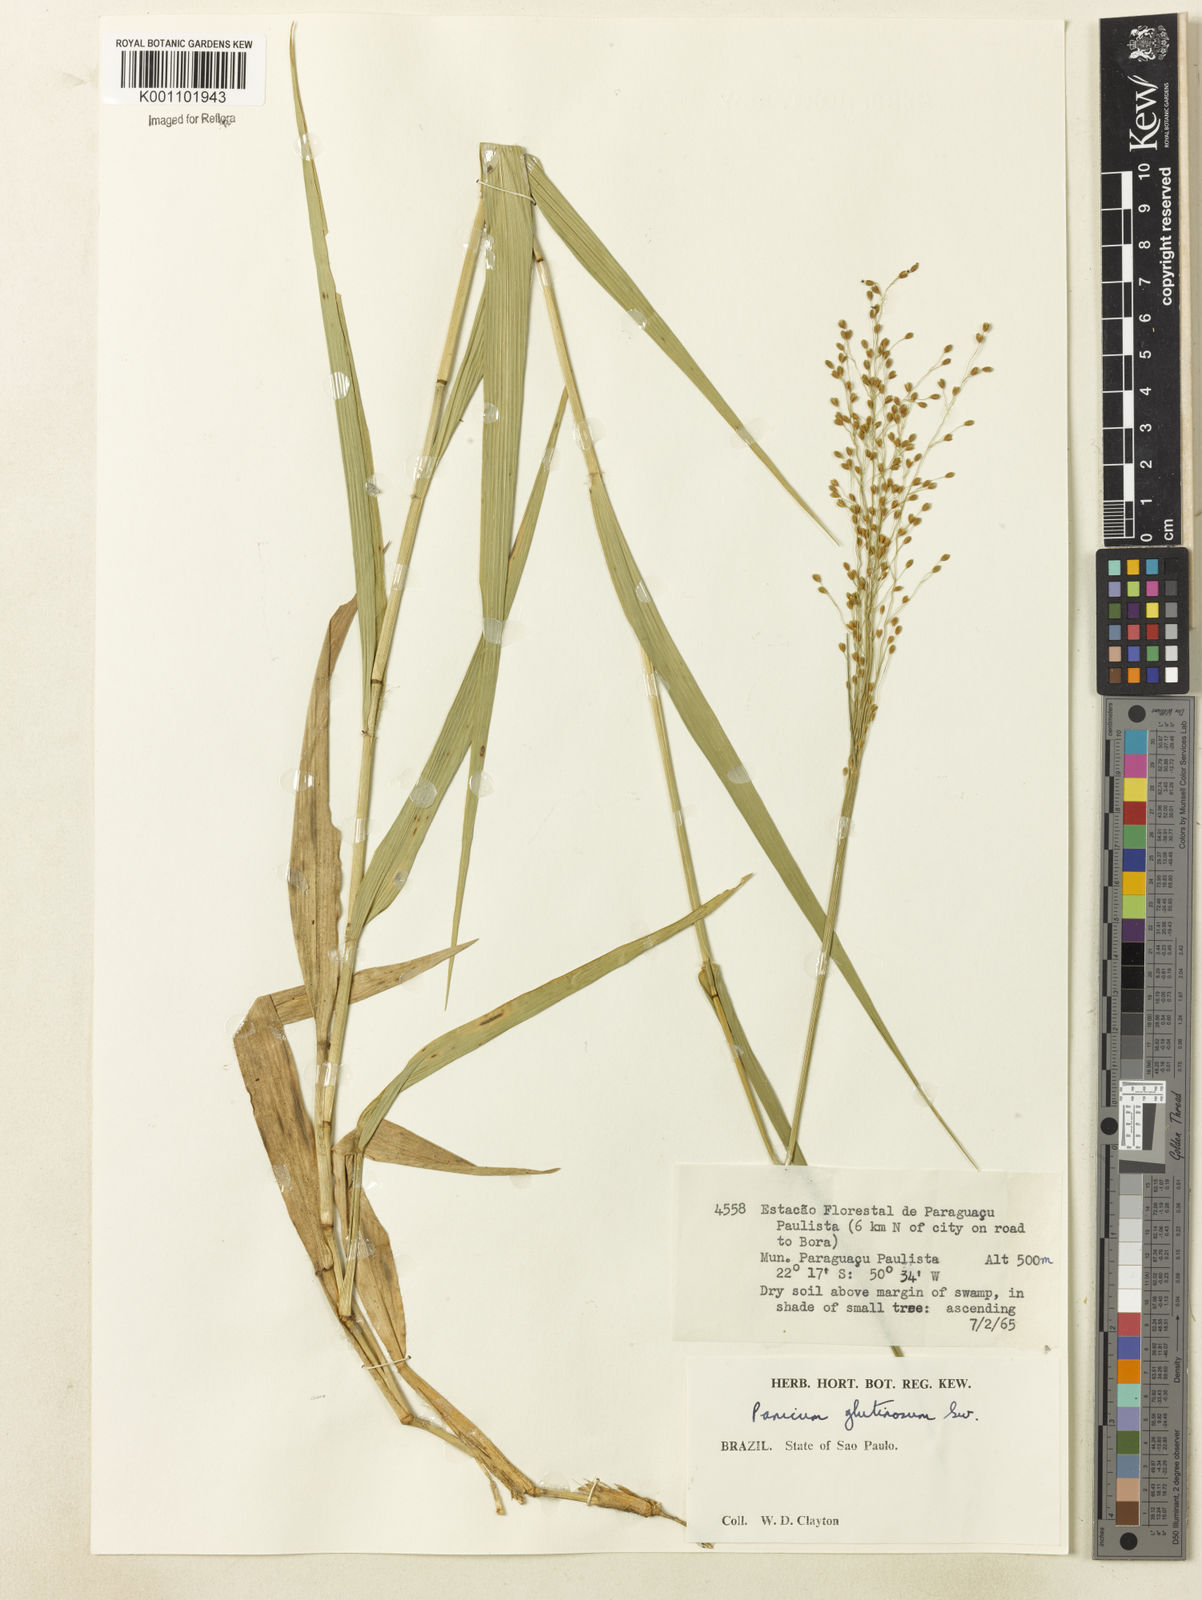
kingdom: Plantae
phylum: Tracheophyta
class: Liliopsida
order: Poales
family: Poaceae
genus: Homolepis
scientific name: Homolepis glutinosa
